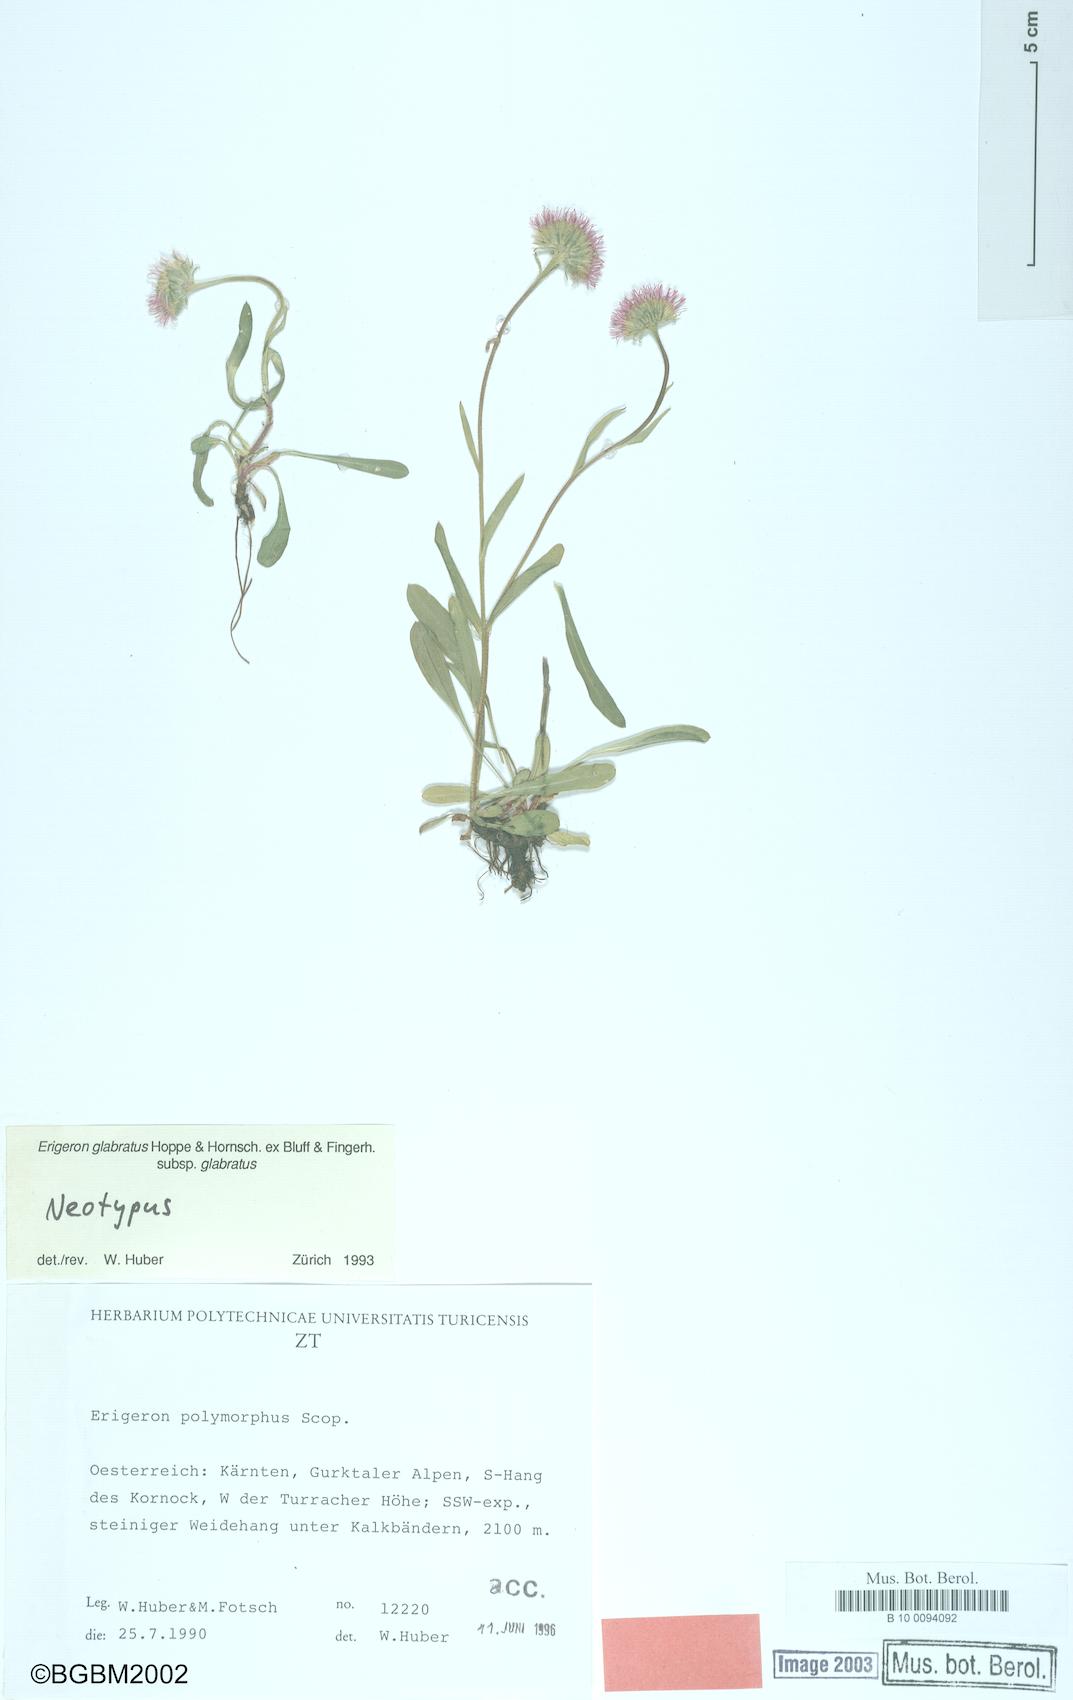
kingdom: Plantae
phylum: Tracheophyta
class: Magnoliopsida
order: Asterales
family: Asteraceae
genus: Erigeron
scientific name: Erigeron glabratus
